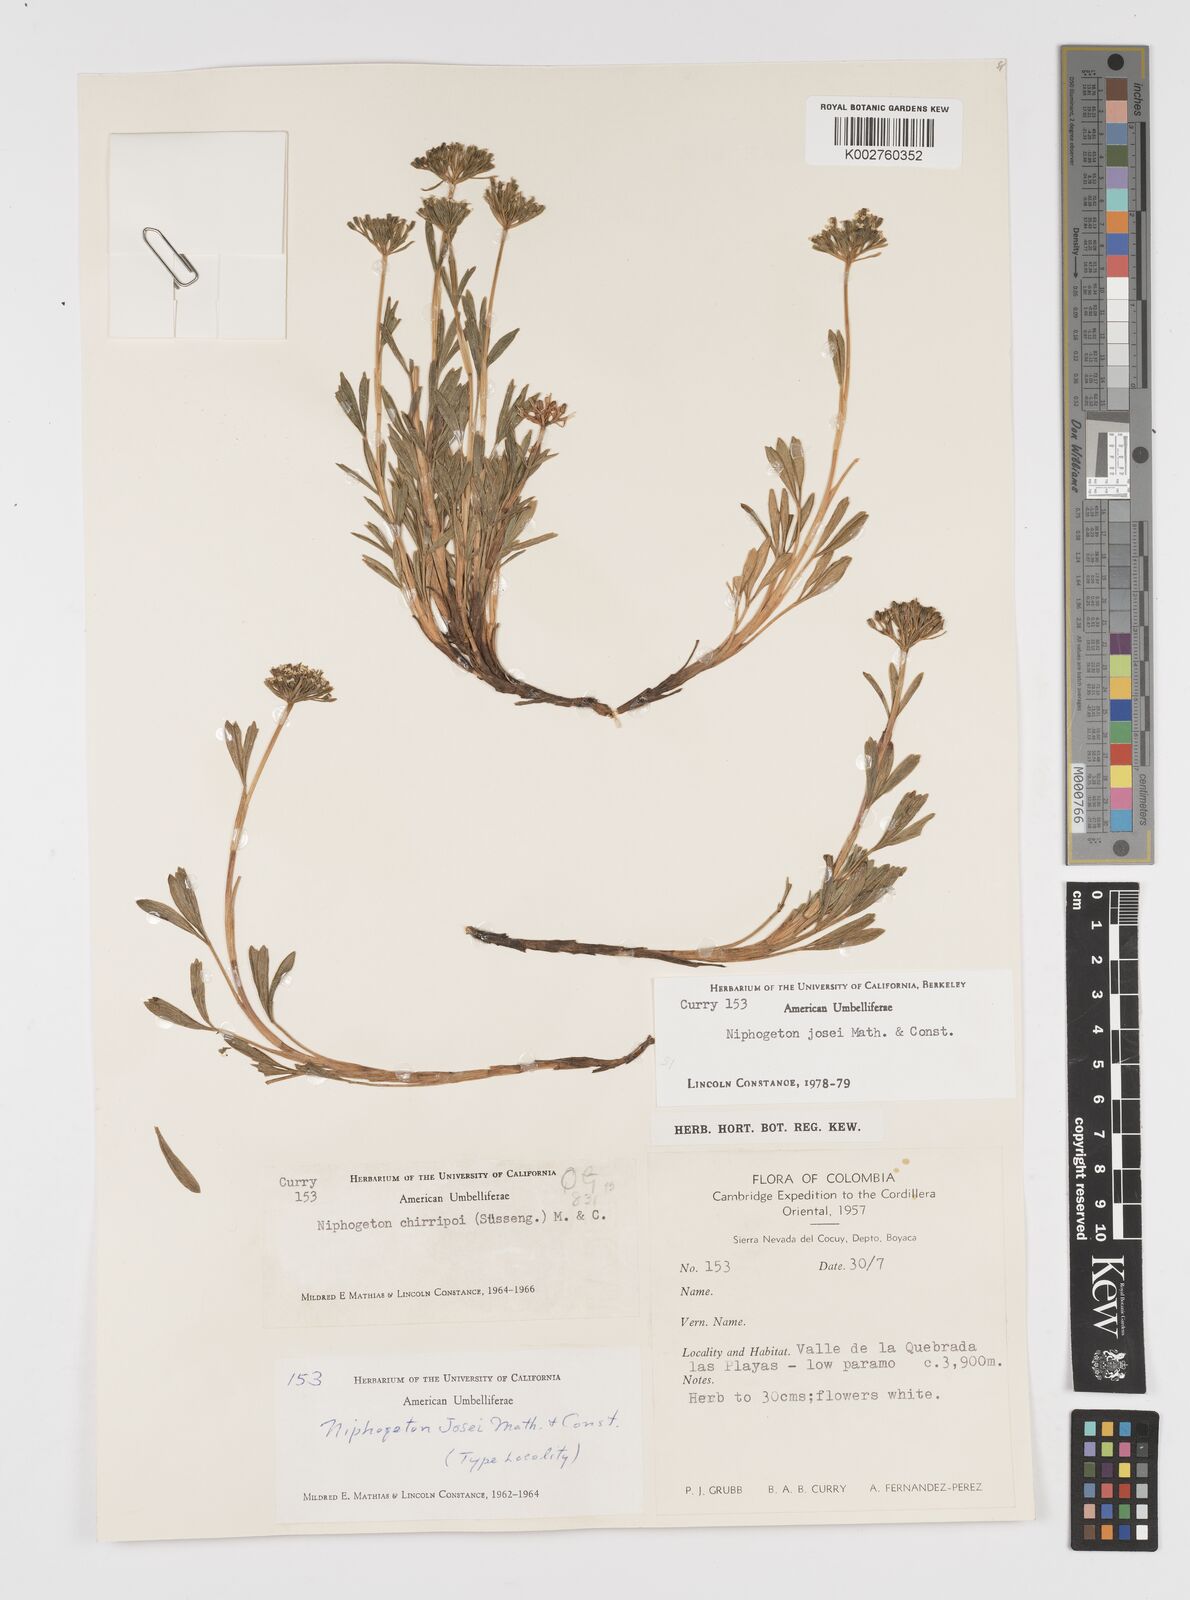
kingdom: Plantae
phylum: Tracheophyta
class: Magnoliopsida
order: Apiales
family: Apiaceae
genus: Niphogeton
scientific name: Niphogeton josei
